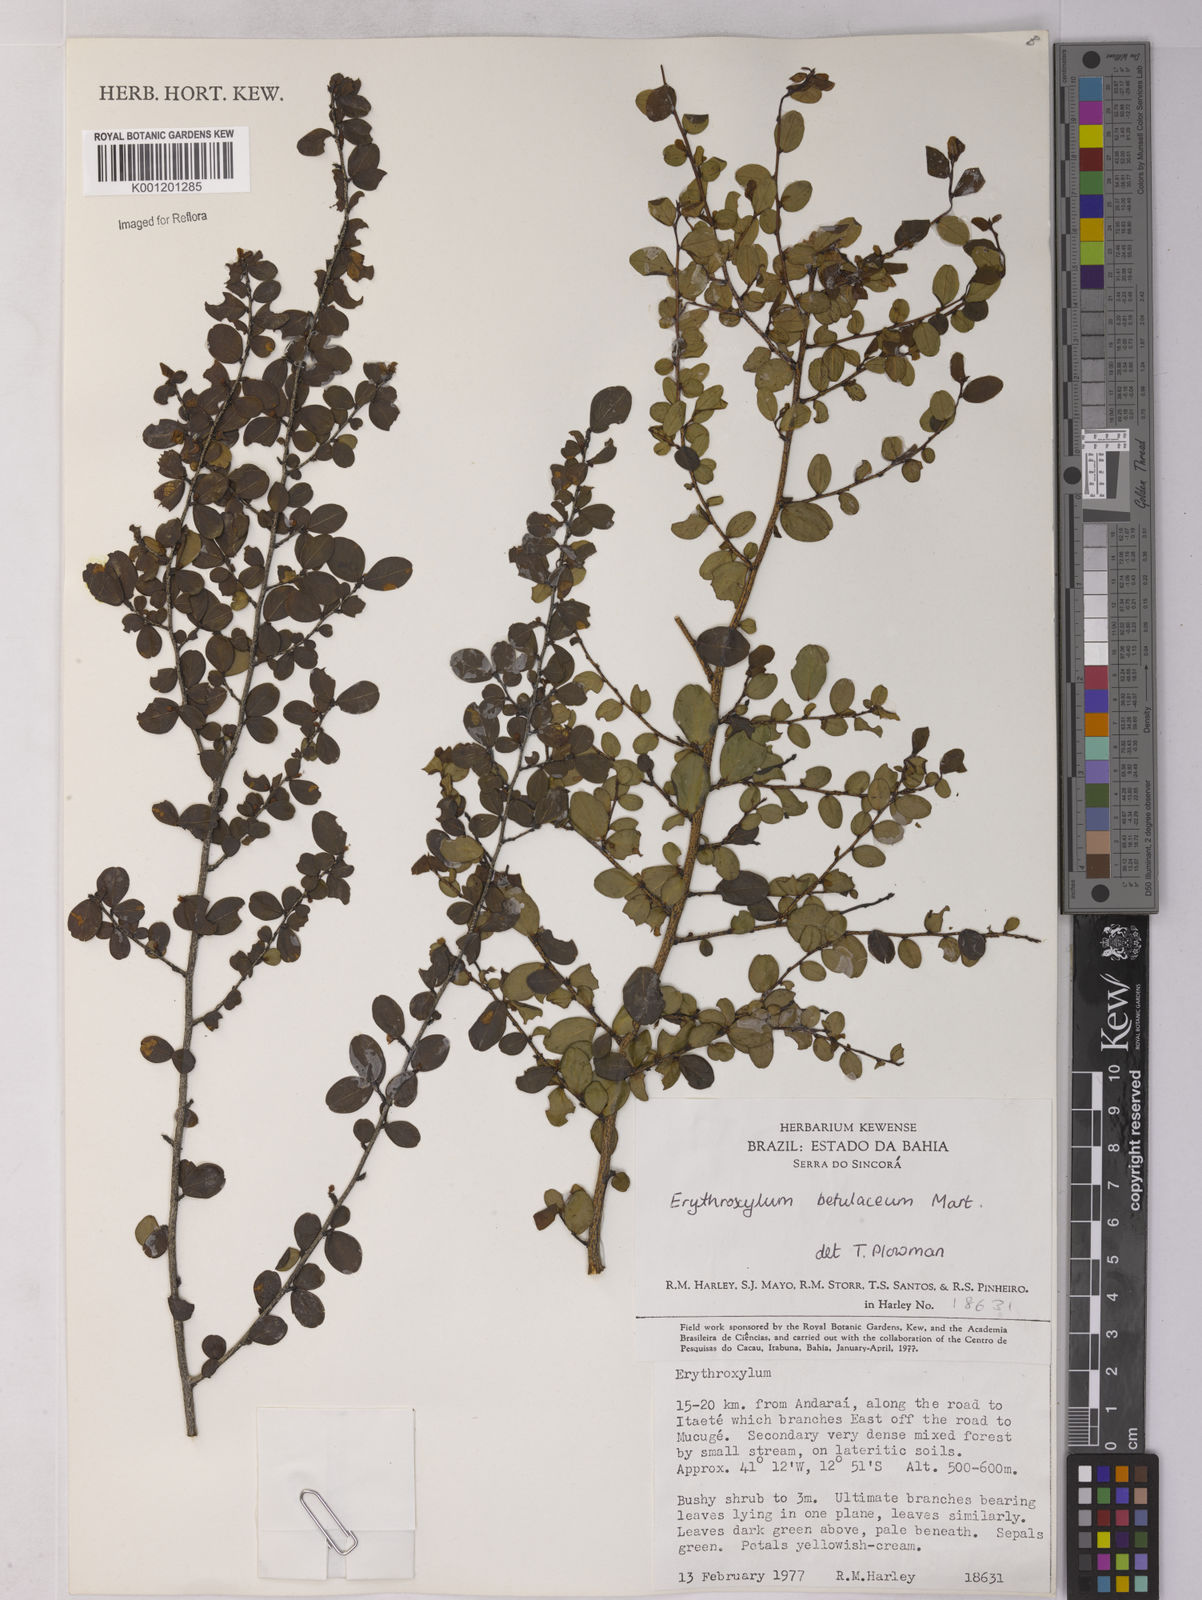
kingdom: Plantae
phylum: Tracheophyta
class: Magnoliopsida
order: Malpighiales
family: Erythroxylaceae
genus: Erythroxylum
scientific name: Erythroxylum betulaceum
